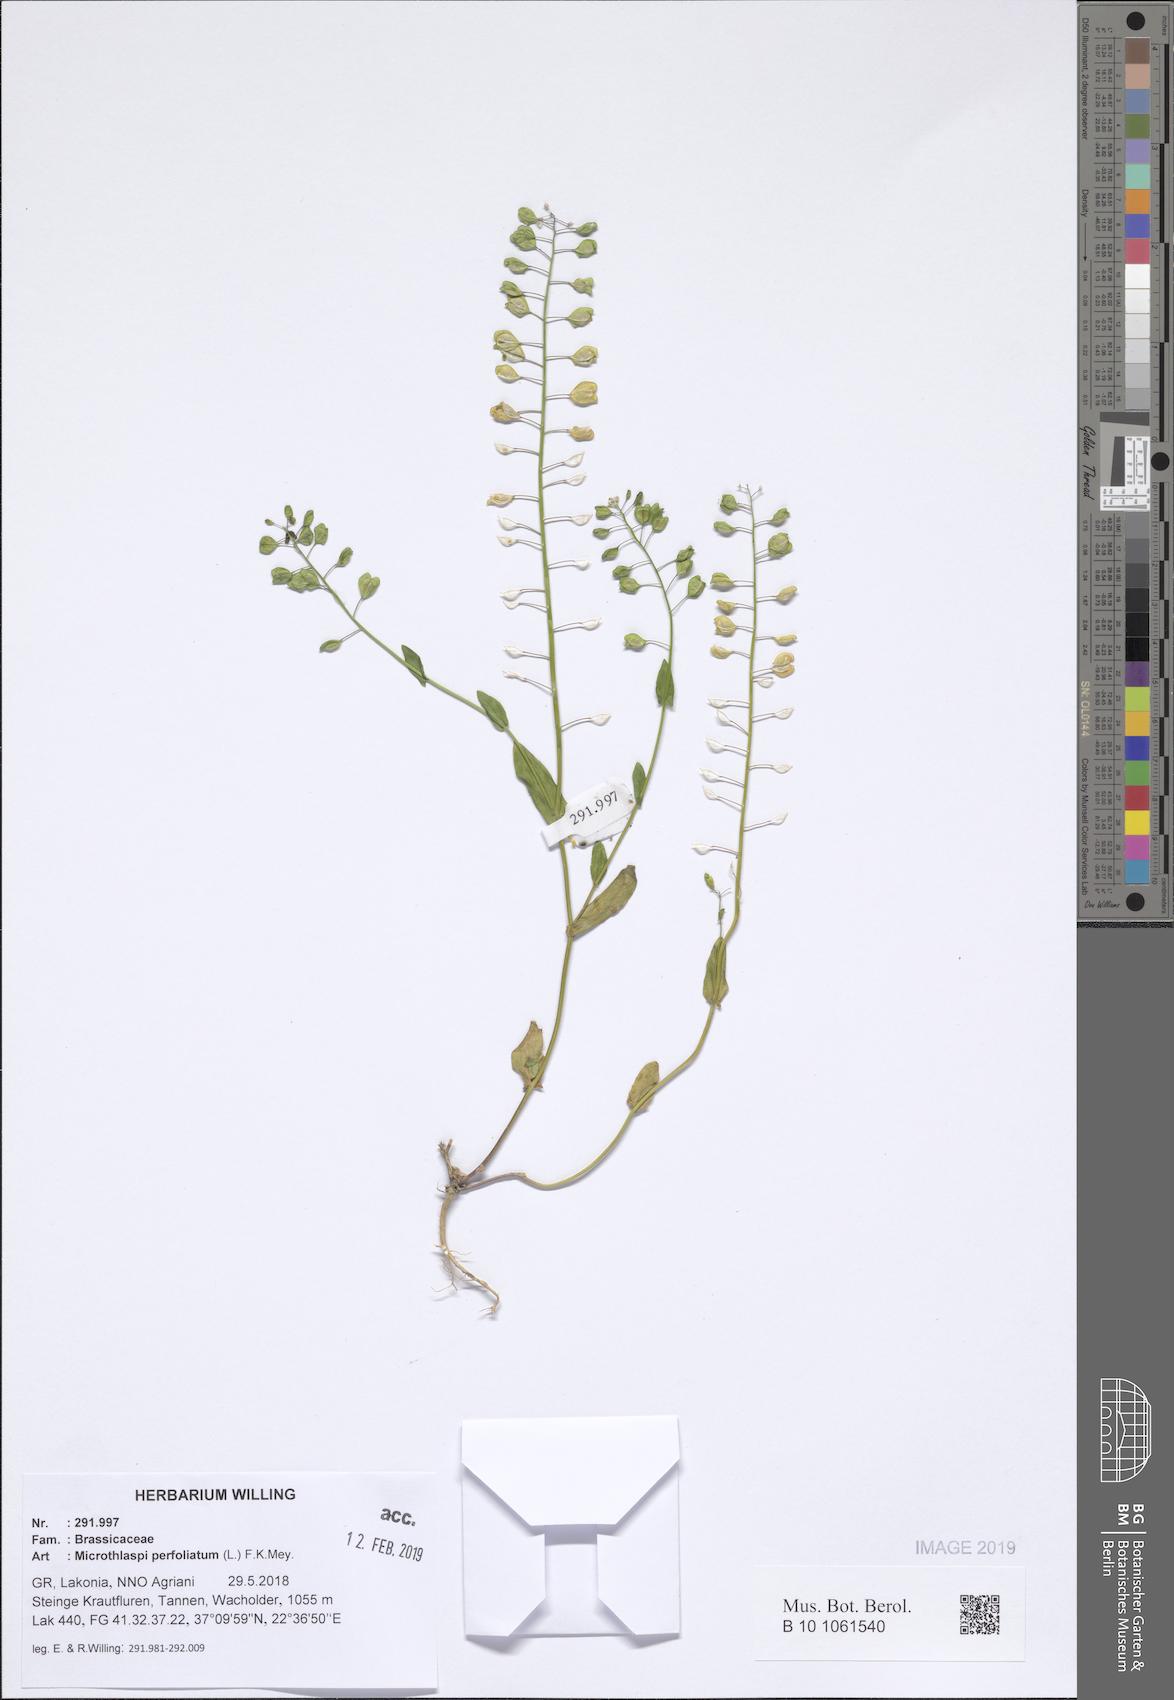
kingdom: Plantae
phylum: Tracheophyta
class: Magnoliopsida
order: Brassicales
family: Brassicaceae
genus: Noccaea
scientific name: Noccaea perfoliata
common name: Perfoliate pennycress
